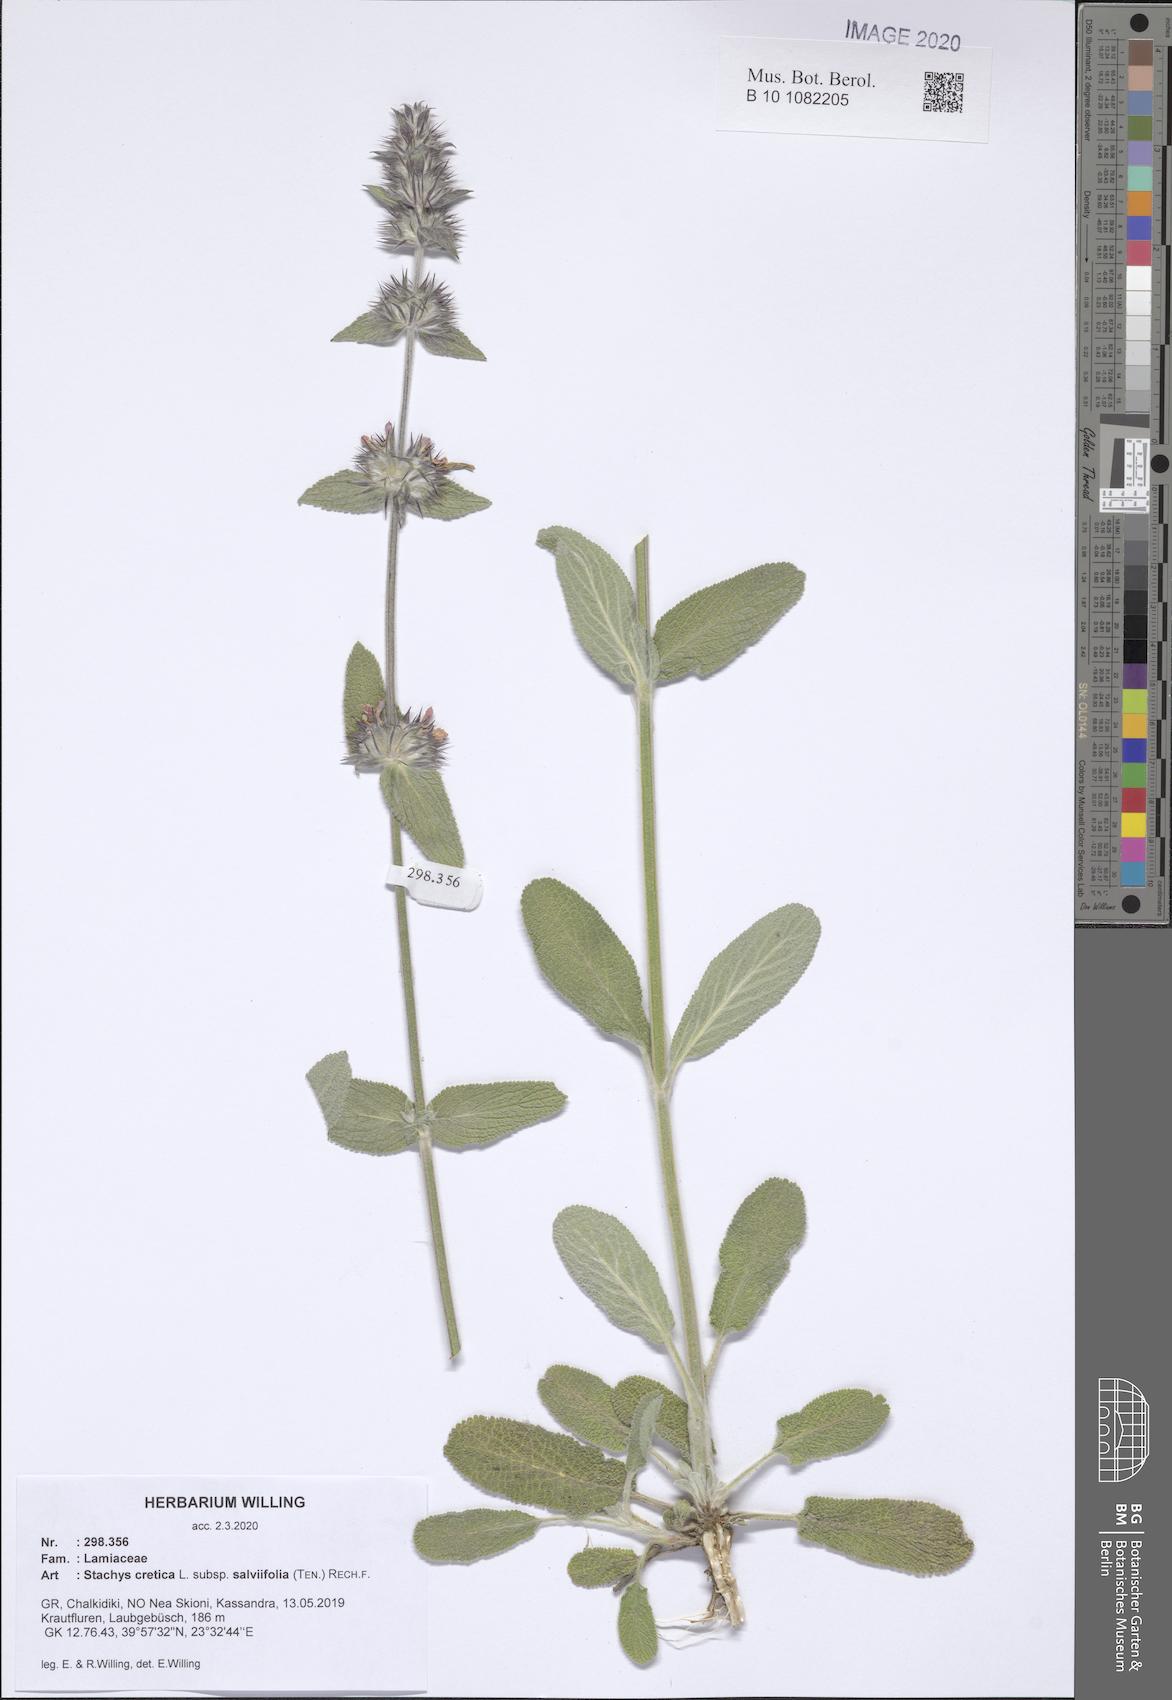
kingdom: Plantae
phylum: Tracheophyta
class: Magnoliopsida
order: Lamiales
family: Lamiaceae
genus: Stachys
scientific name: Stachys cretica
